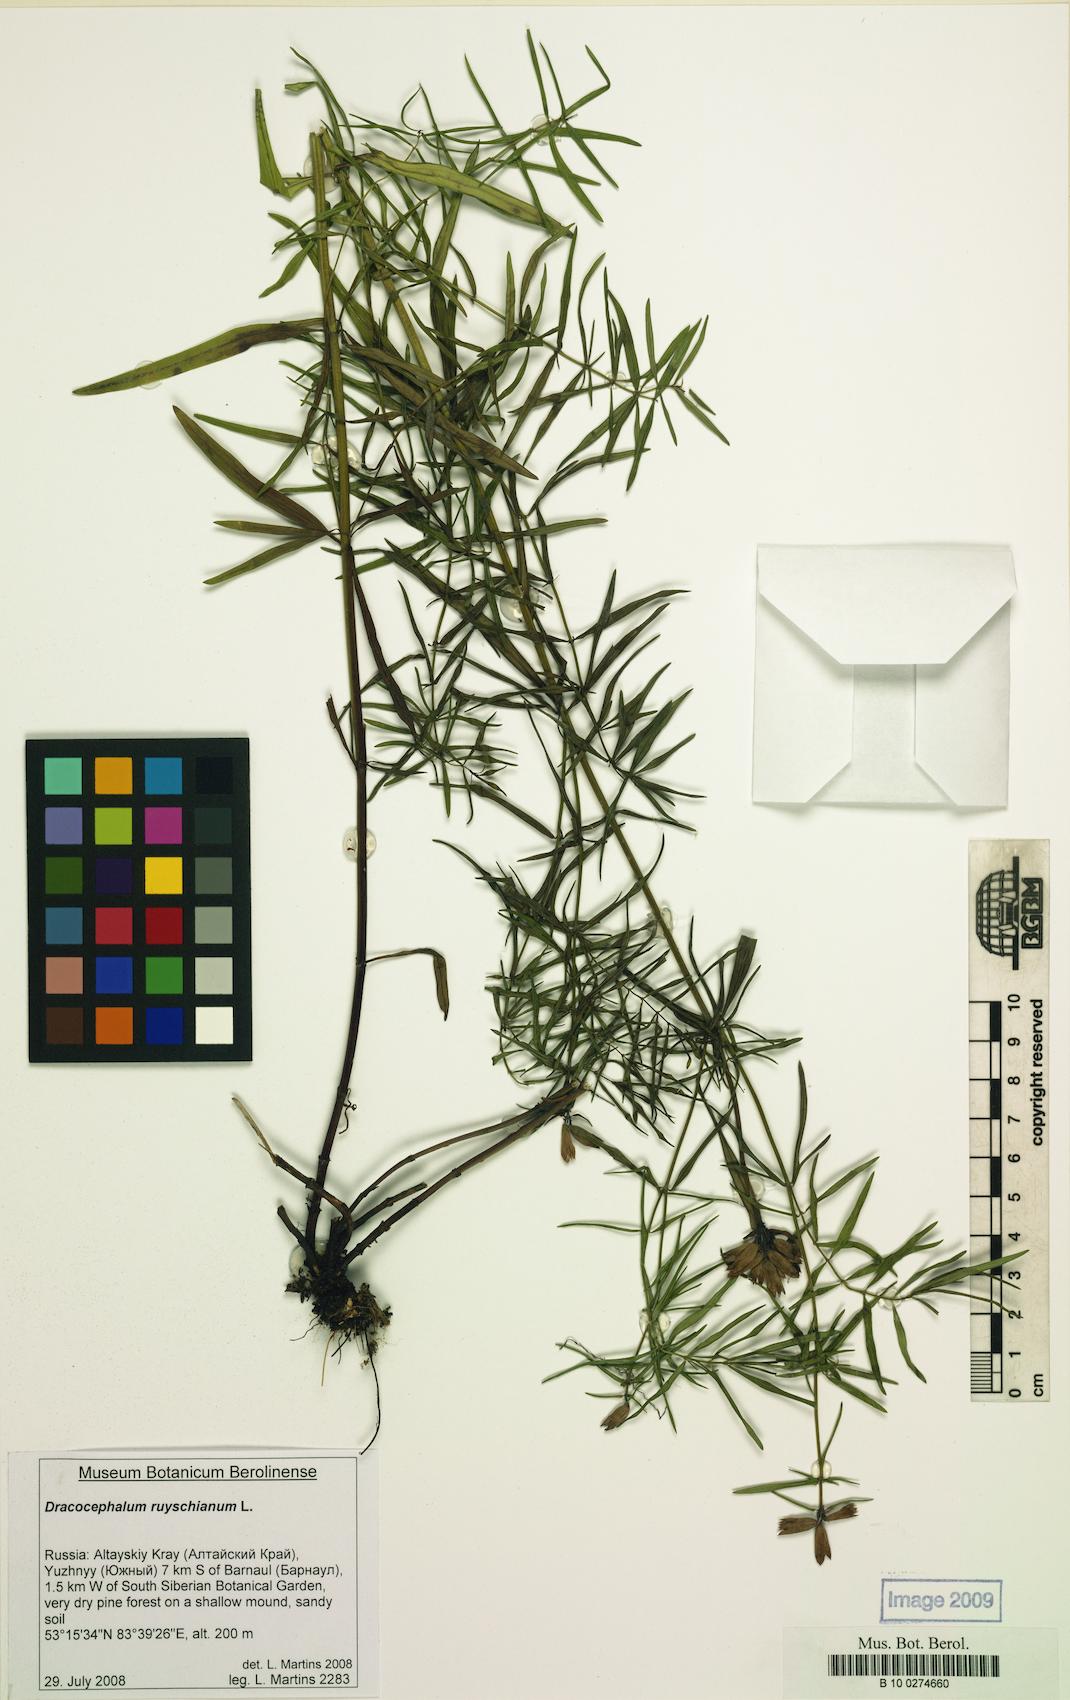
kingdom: Plantae
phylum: Tracheophyta
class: Magnoliopsida
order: Lamiales
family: Lamiaceae
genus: Dracocephalum
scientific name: Dracocephalum ruyschiana
